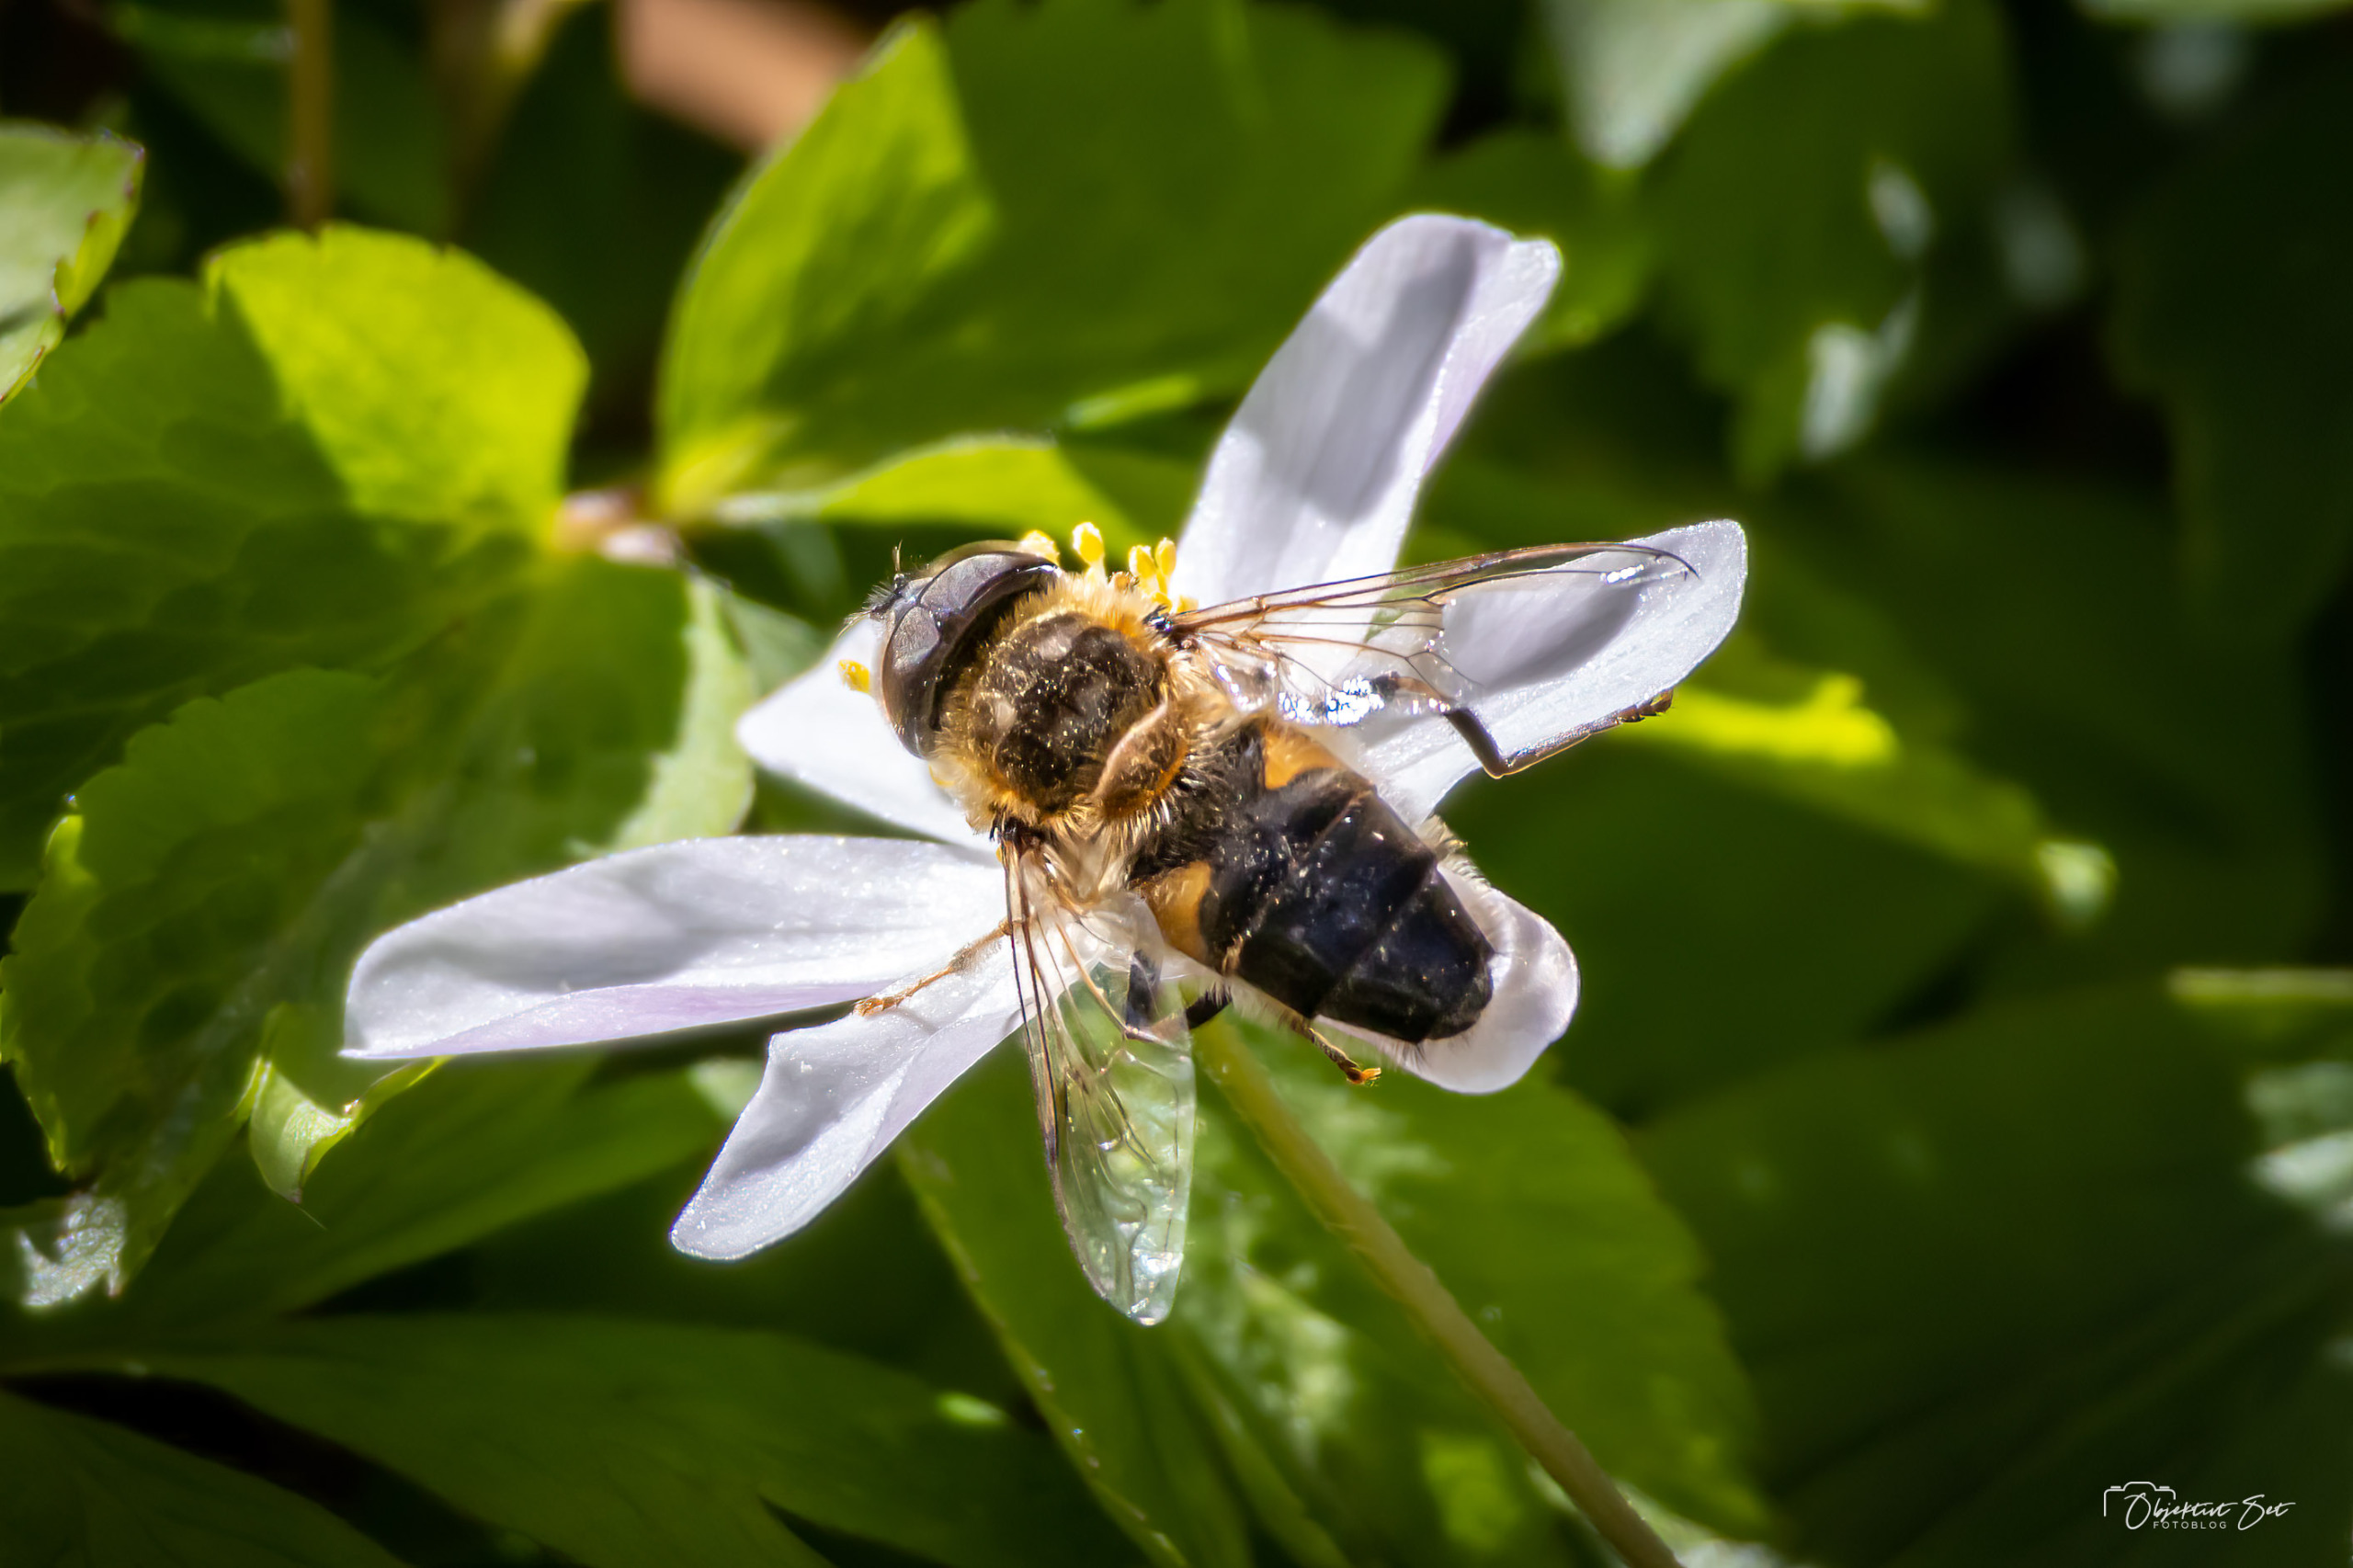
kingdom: Animalia
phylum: Arthropoda
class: Insecta
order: Diptera
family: Syrphidae
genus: Eristalis
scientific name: Eristalis pertinax
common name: Gulfodet dyndflue
